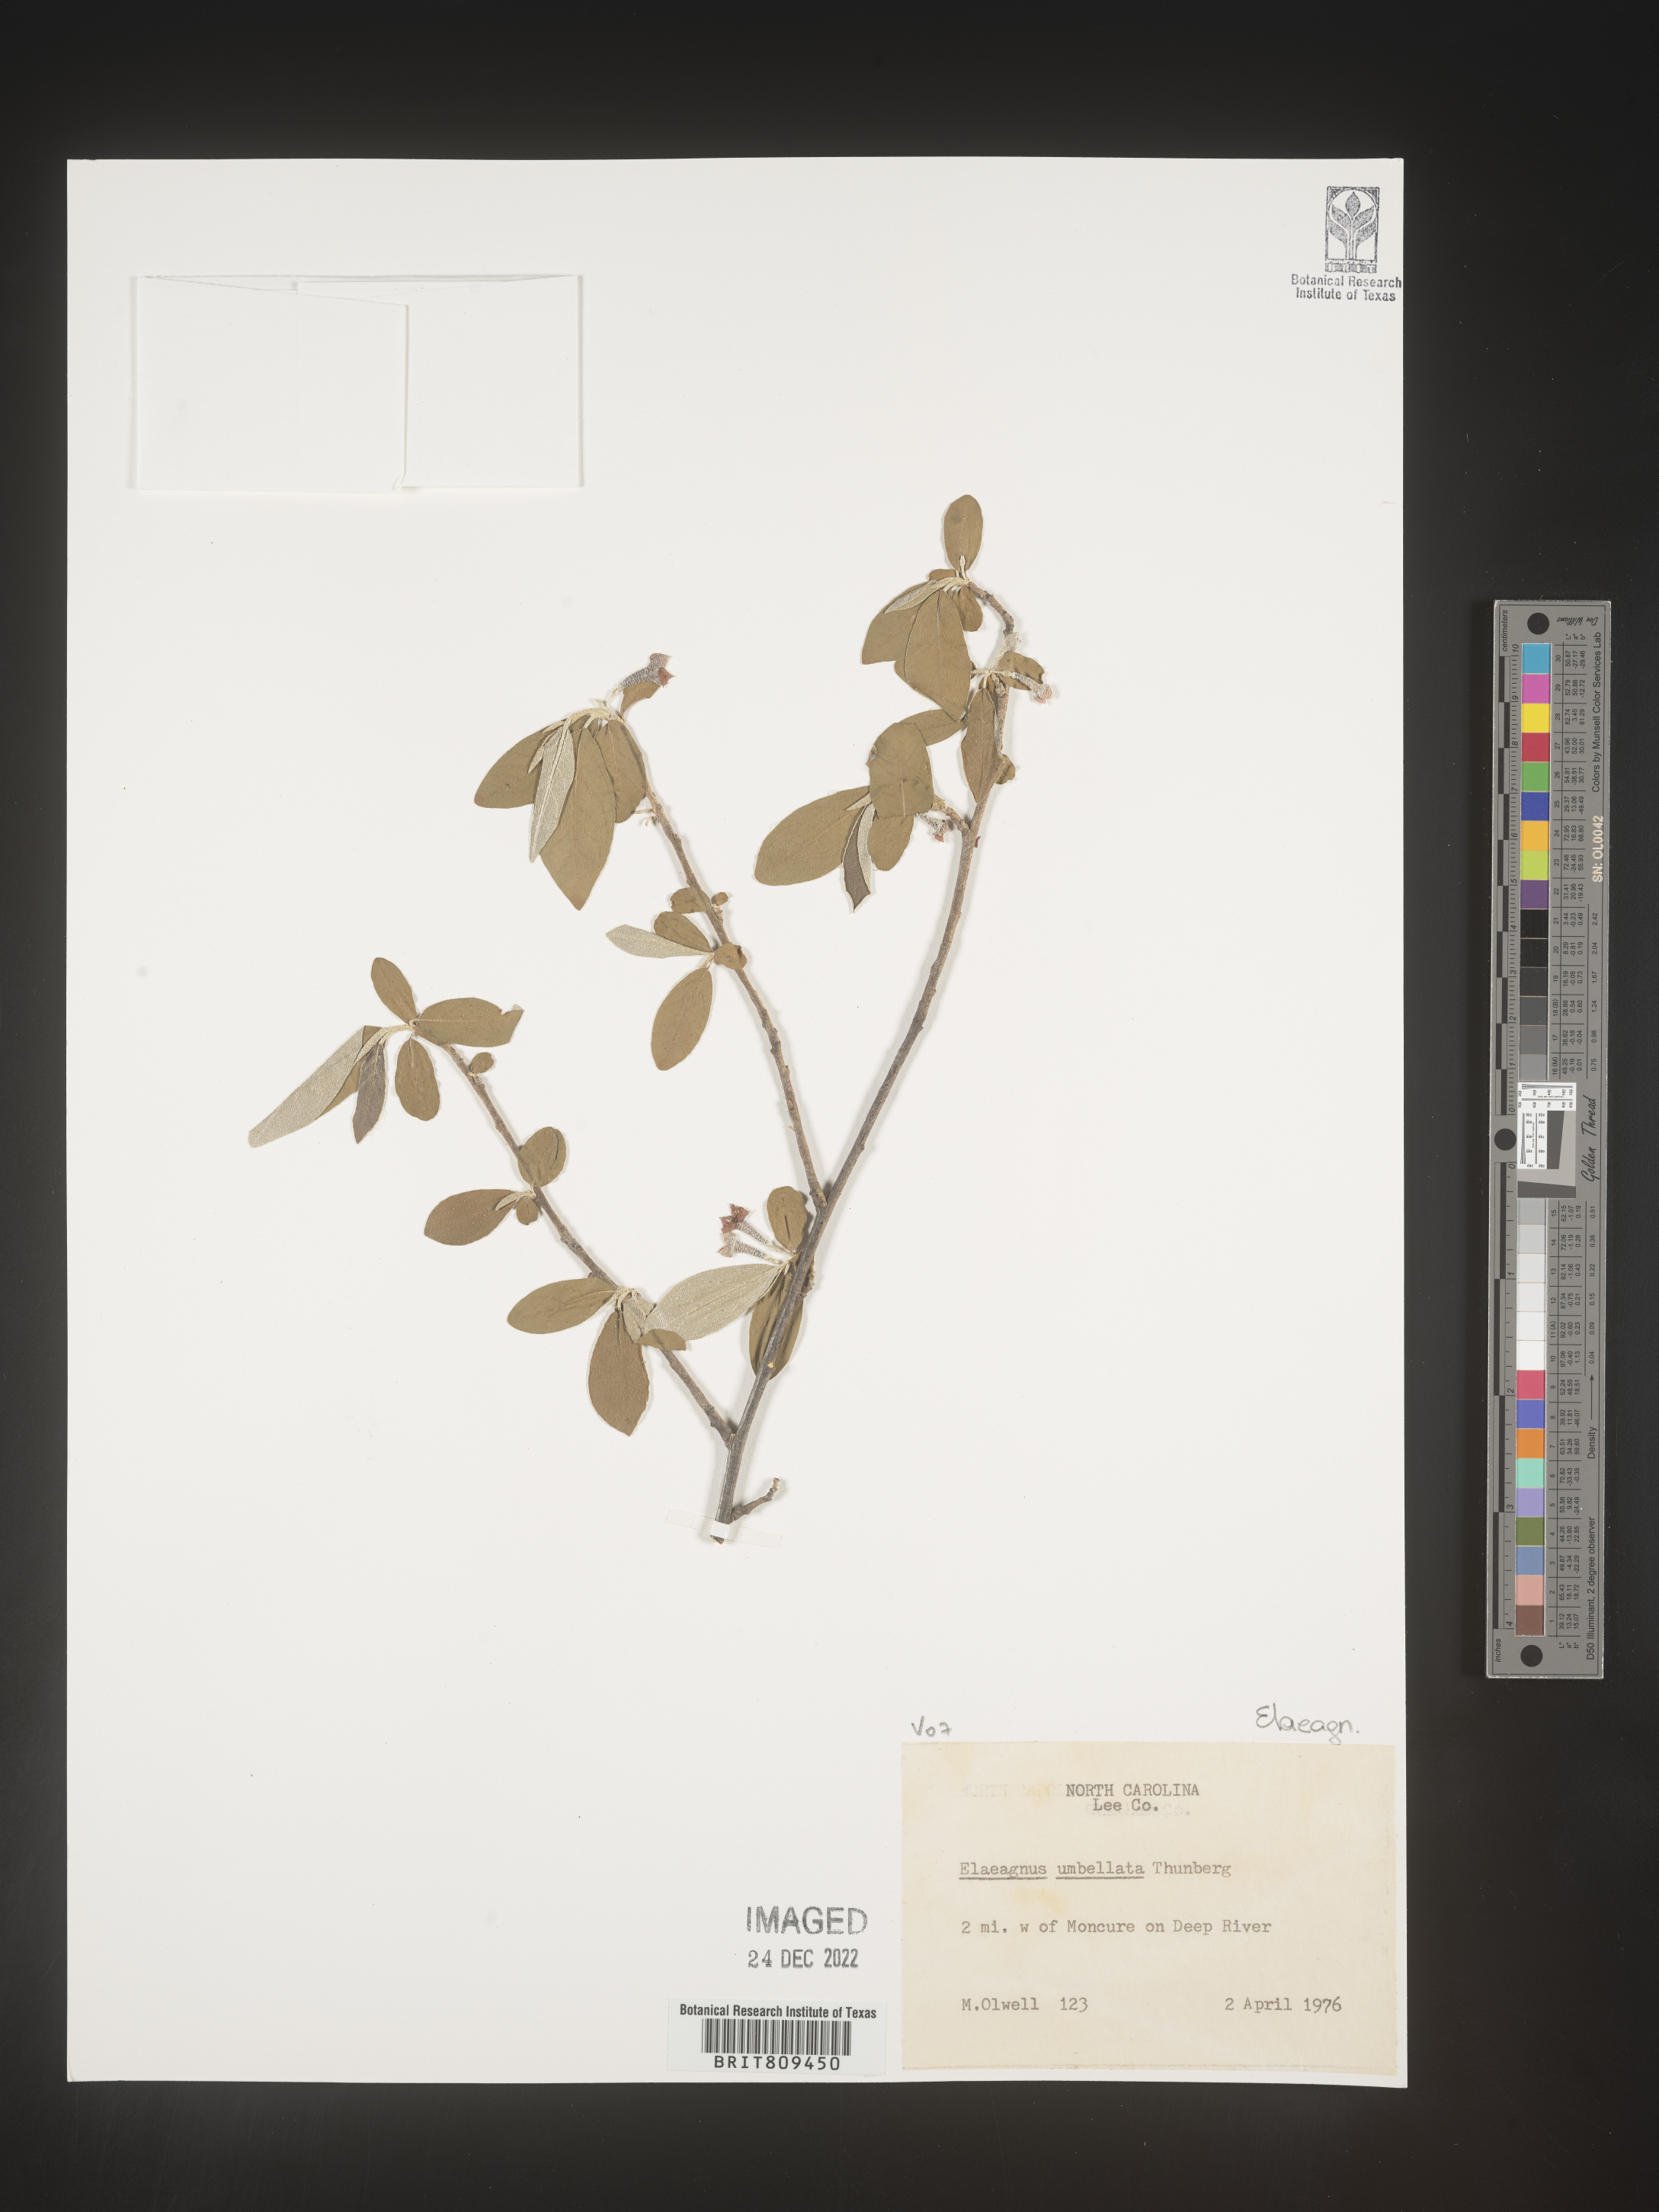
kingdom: Plantae
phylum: Tracheophyta
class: Magnoliopsida
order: Rosales
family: Elaeagnaceae
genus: Elaeagnus
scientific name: Elaeagnus
